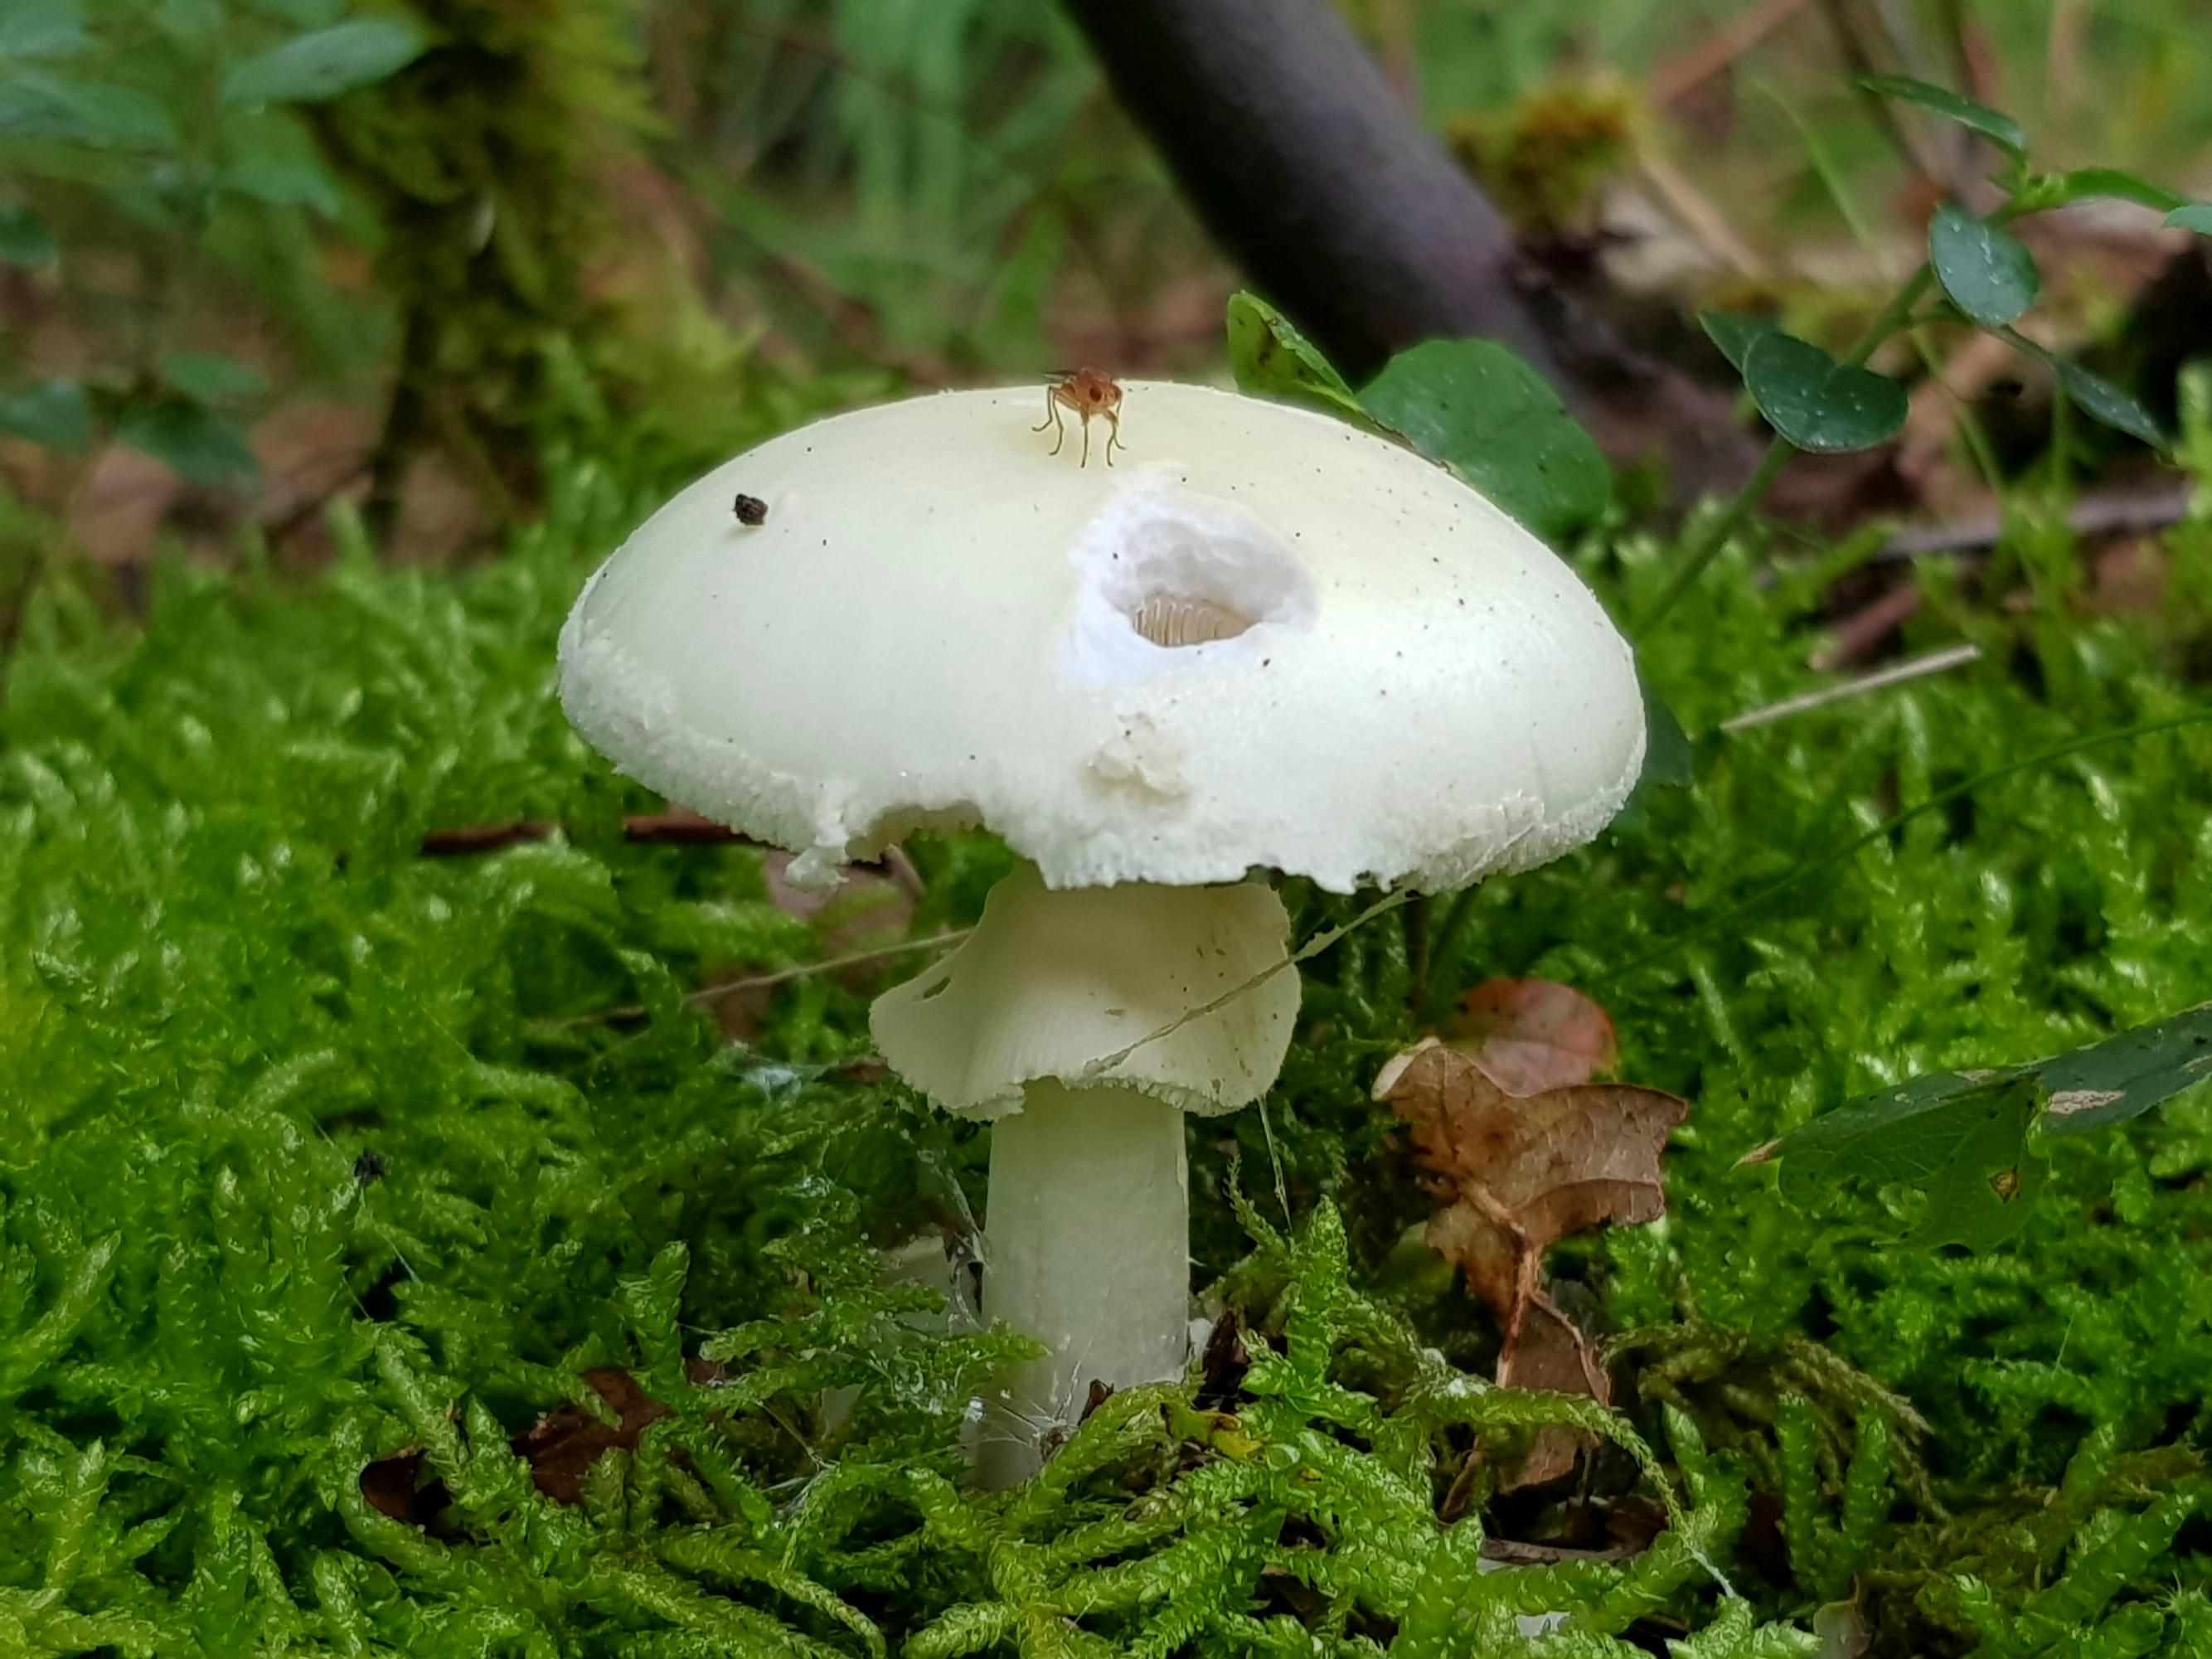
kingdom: Fungi
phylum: Basidiomycota
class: Agaricomycetes
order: Agaricales
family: Amanitaceae
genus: Amanita
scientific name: Amanita citrina
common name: kugleknoldet fluesvamp
